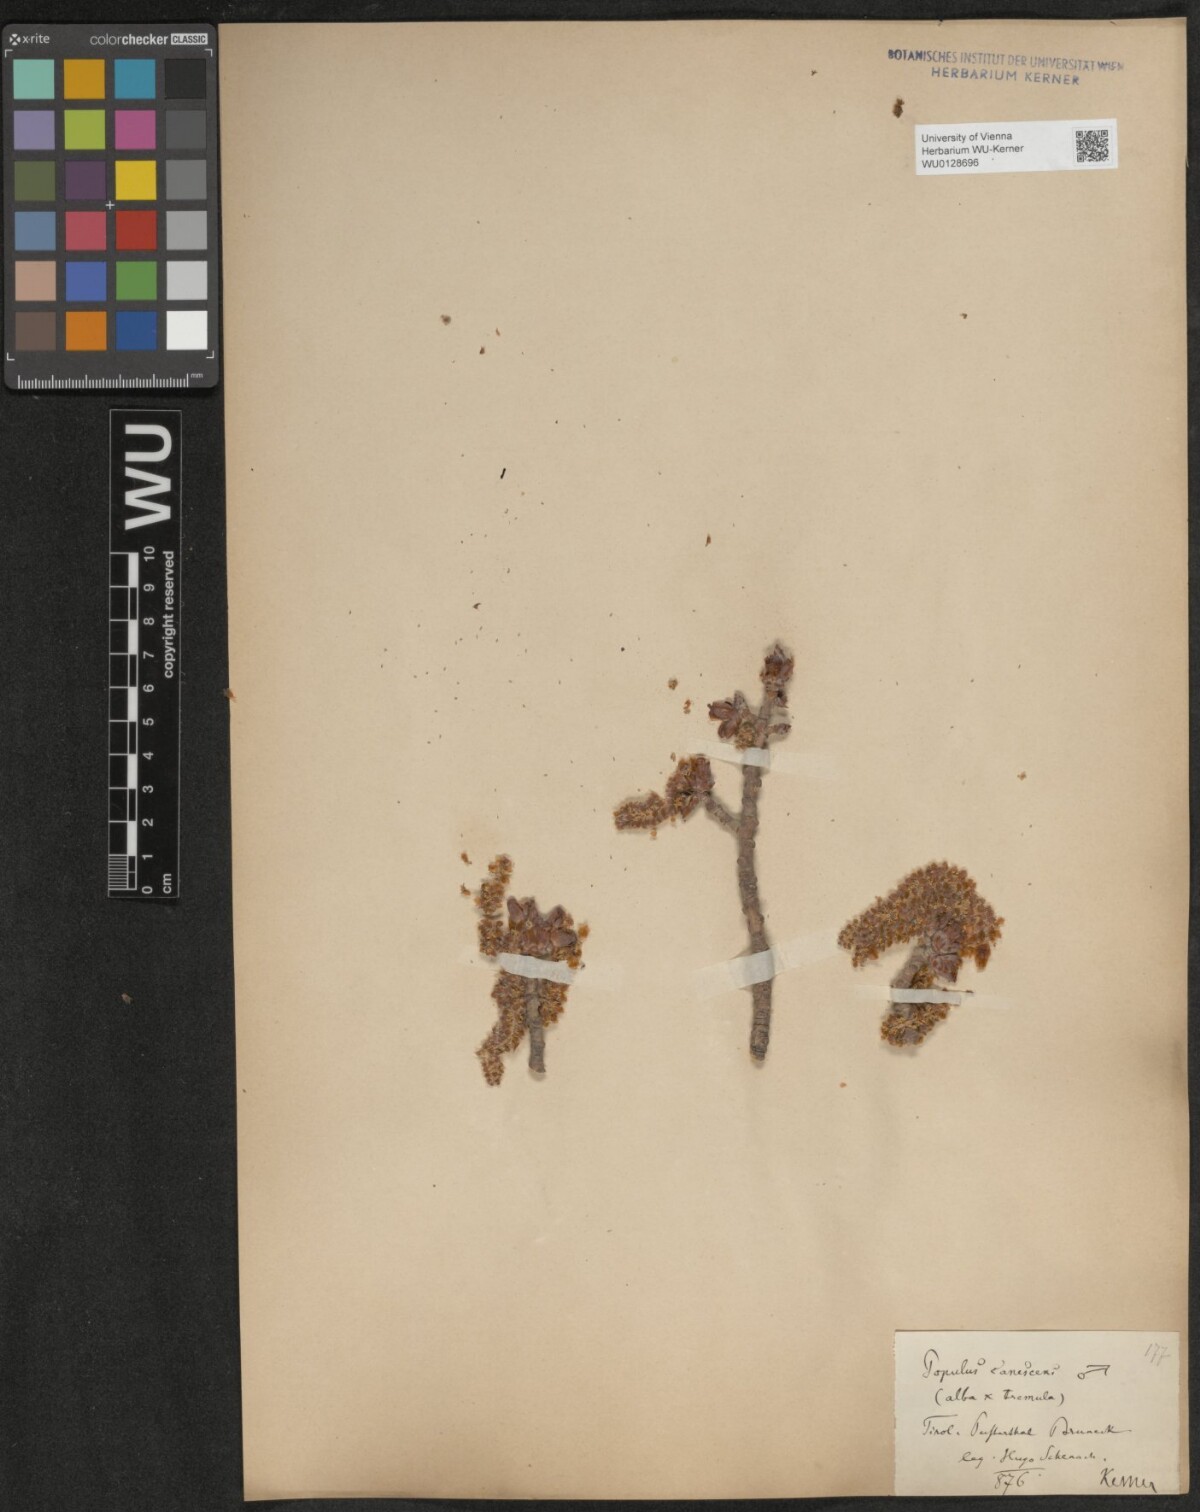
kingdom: Plantae
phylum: Tracheophyta
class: Magnoliopsida
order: Malpighiales
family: Salicaceae
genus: Populus
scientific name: Populus canescens
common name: Gray poplar
